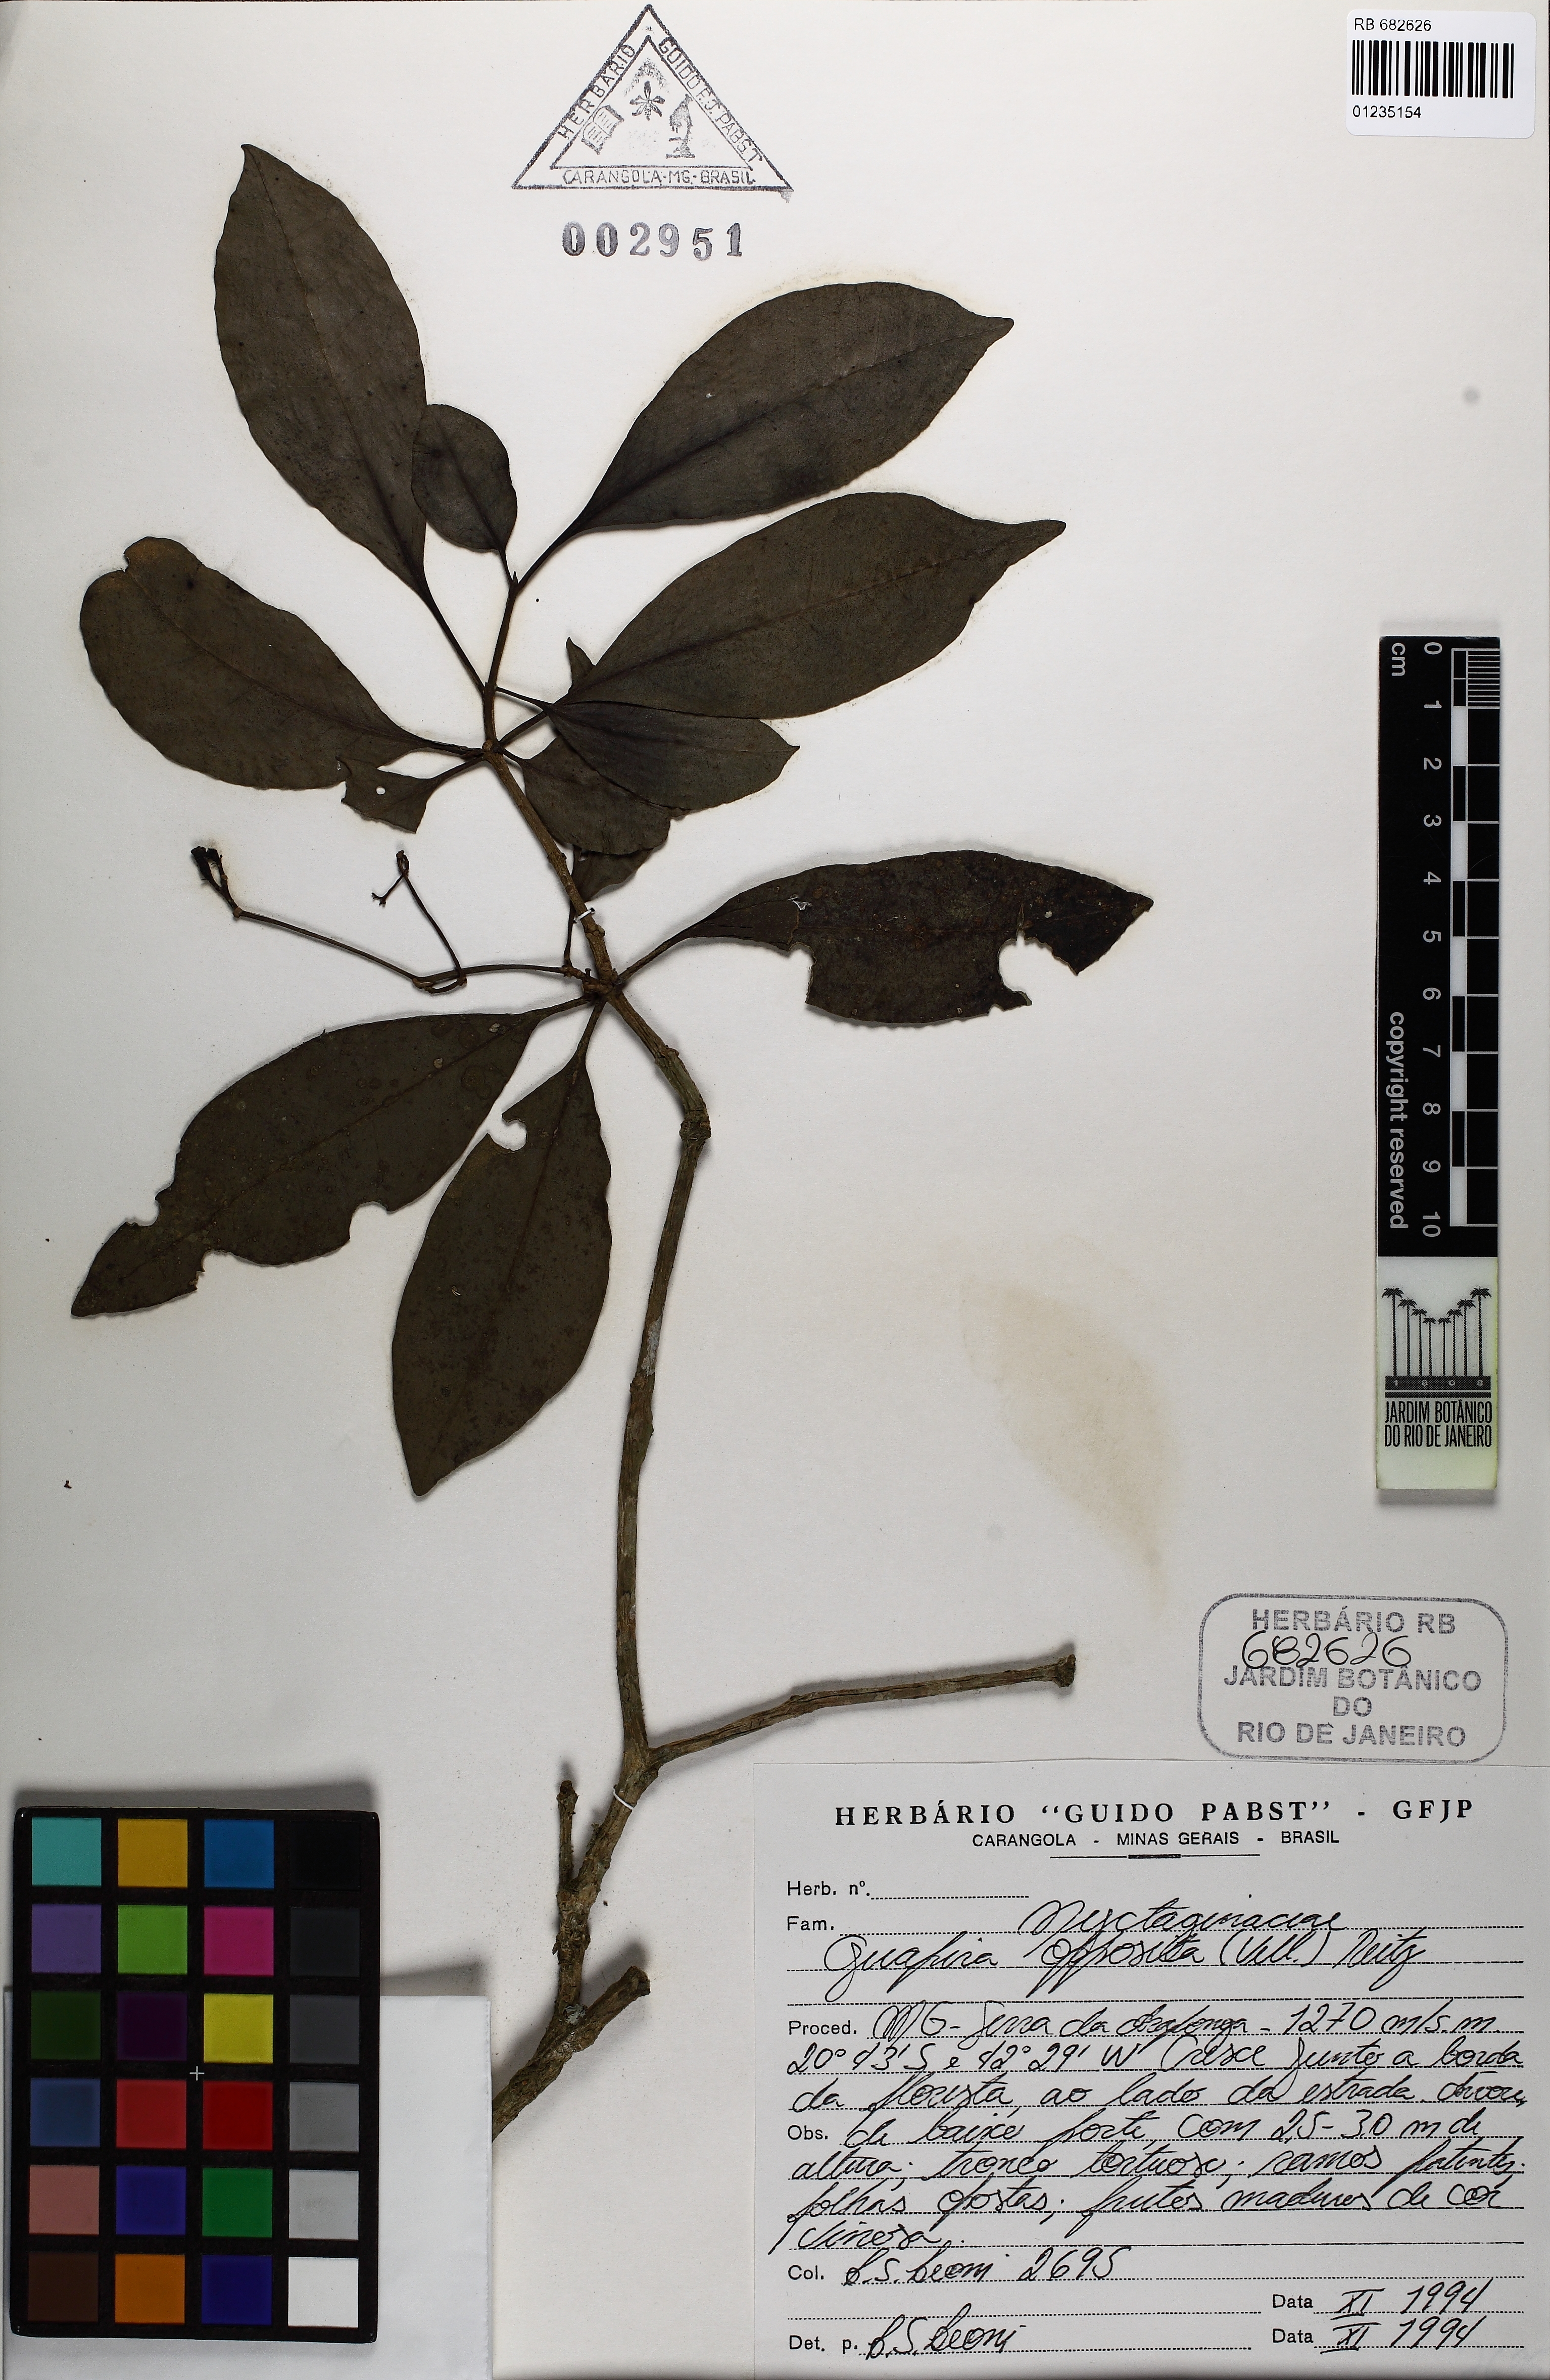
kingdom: Plantae
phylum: Tracheophyta
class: Magnoliopsida
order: Caryophyllales
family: Nyctaginaceae
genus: Guapira
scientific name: Guapira opposita
